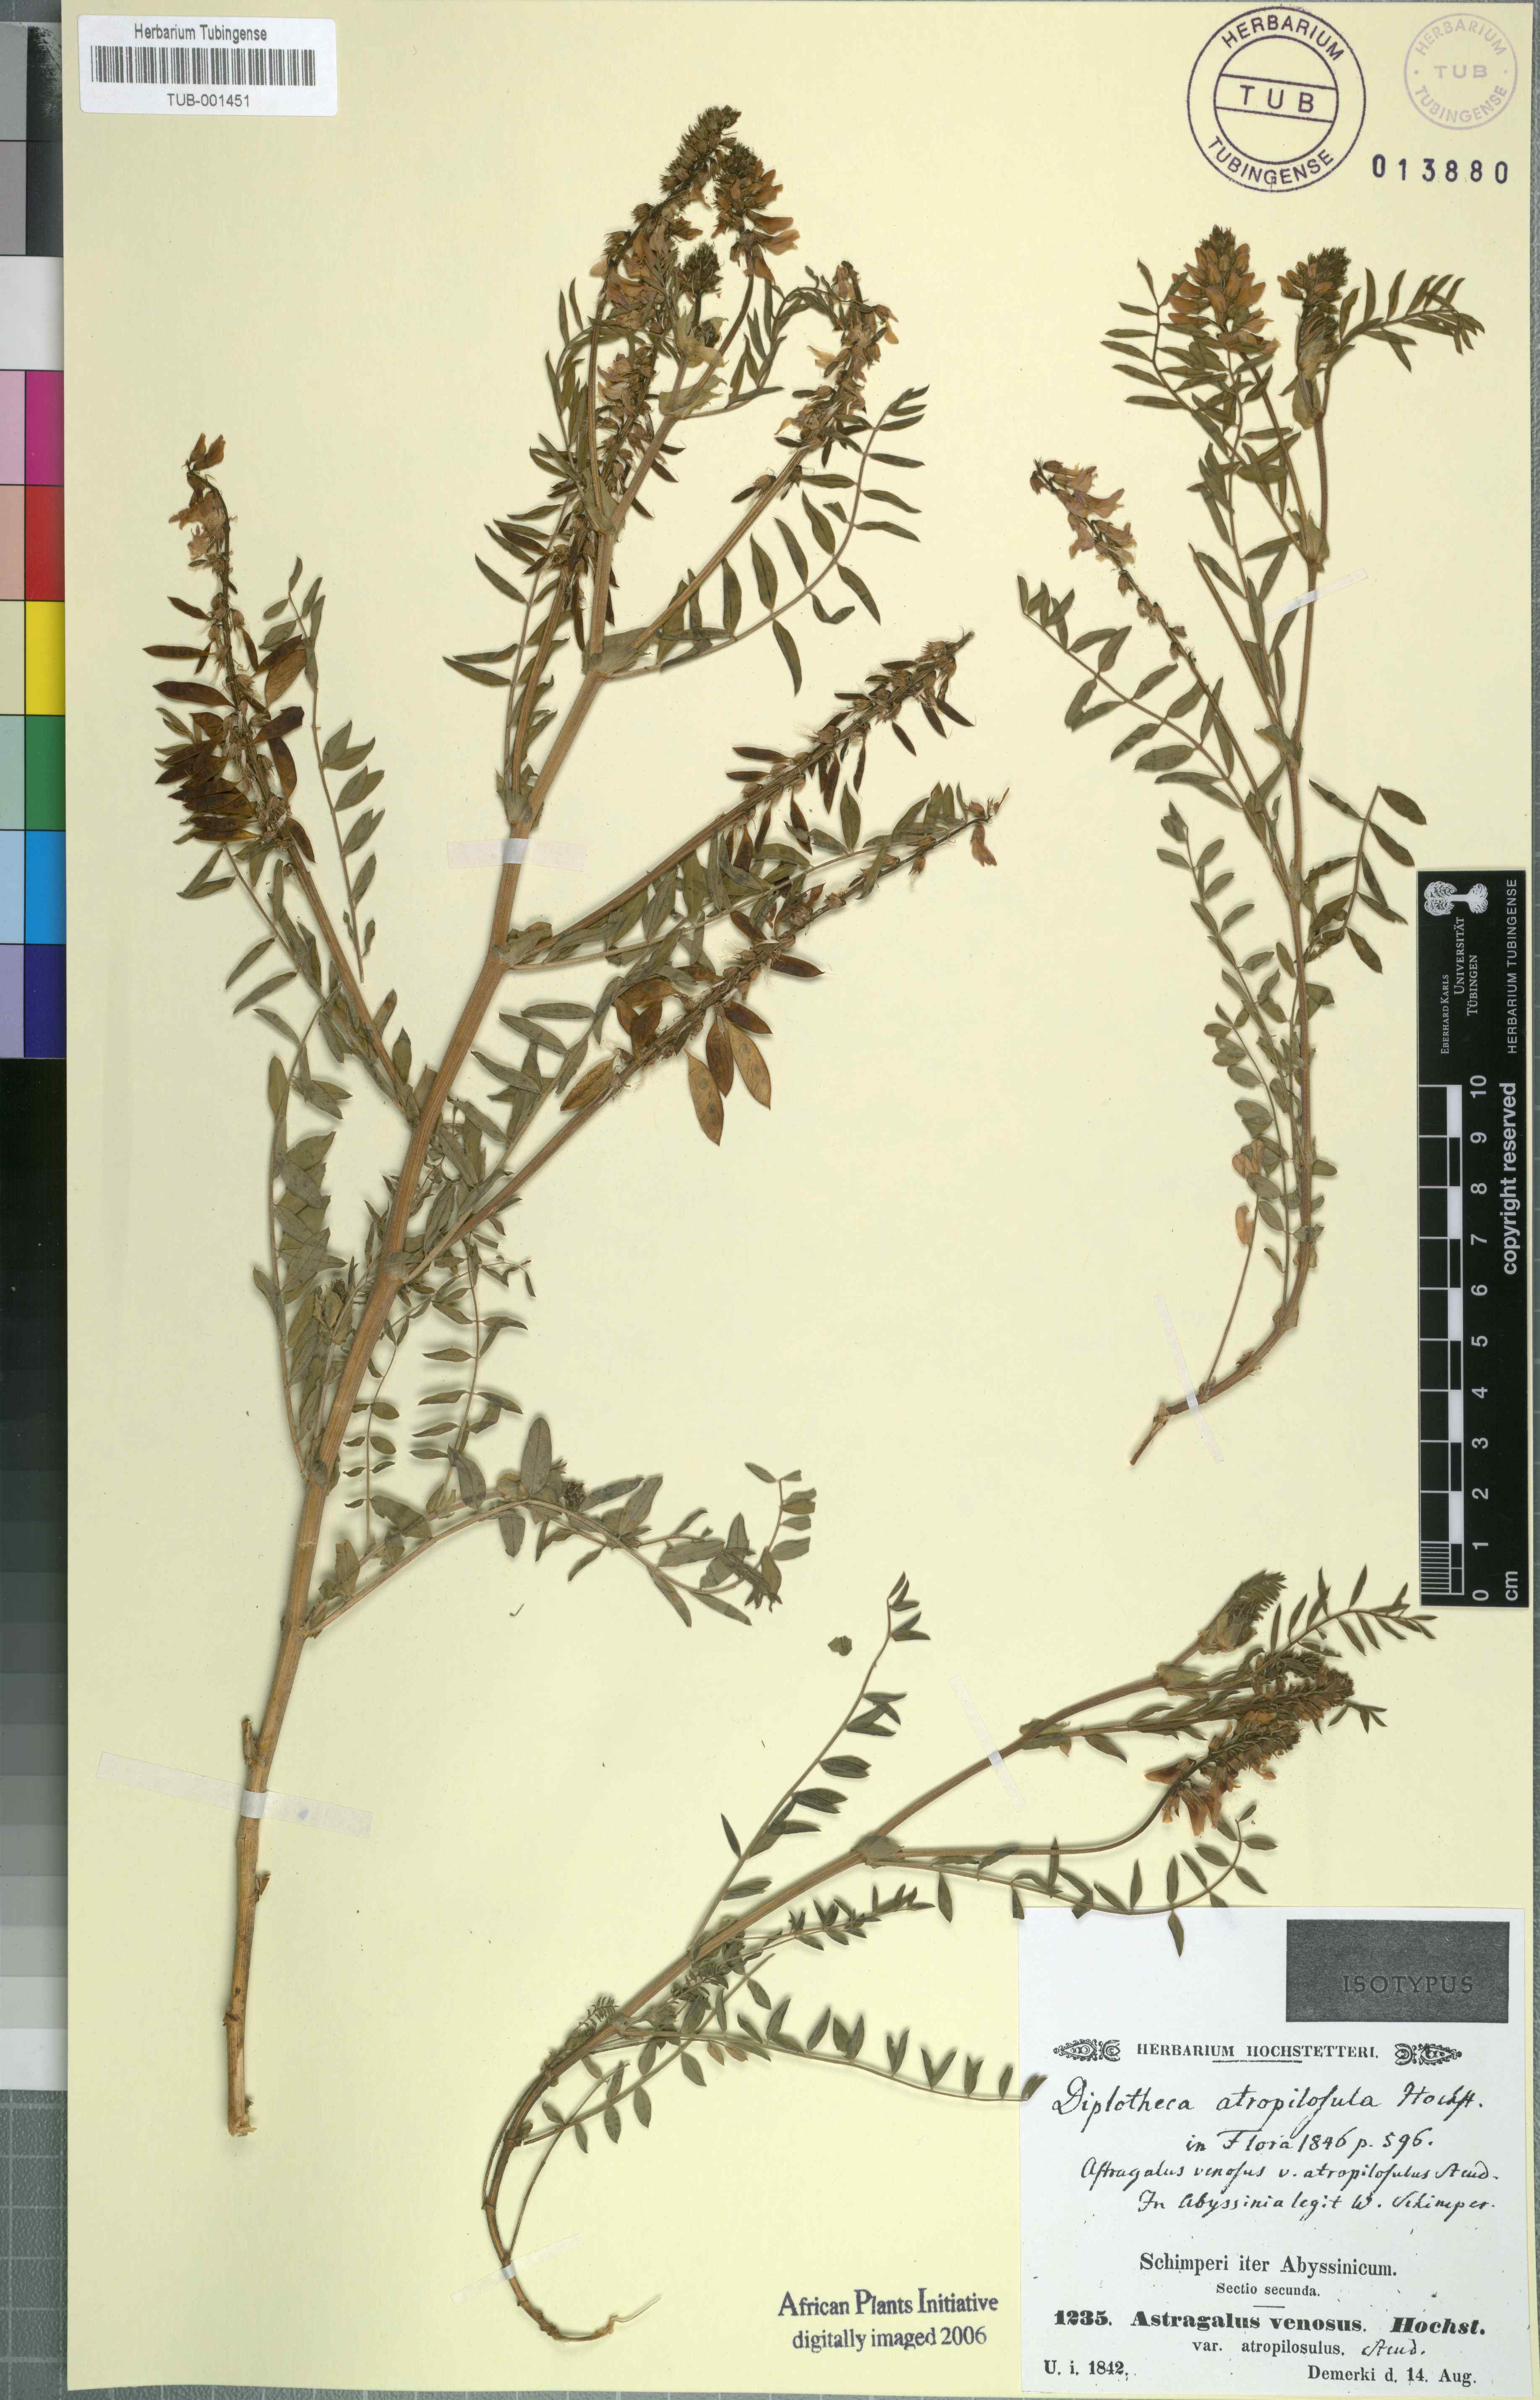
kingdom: Plantae
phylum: Tracheophyta
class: Magnoliopsida
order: Fabales
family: Fabaceae
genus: Astragalus
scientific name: Astragalus atropilosulus
